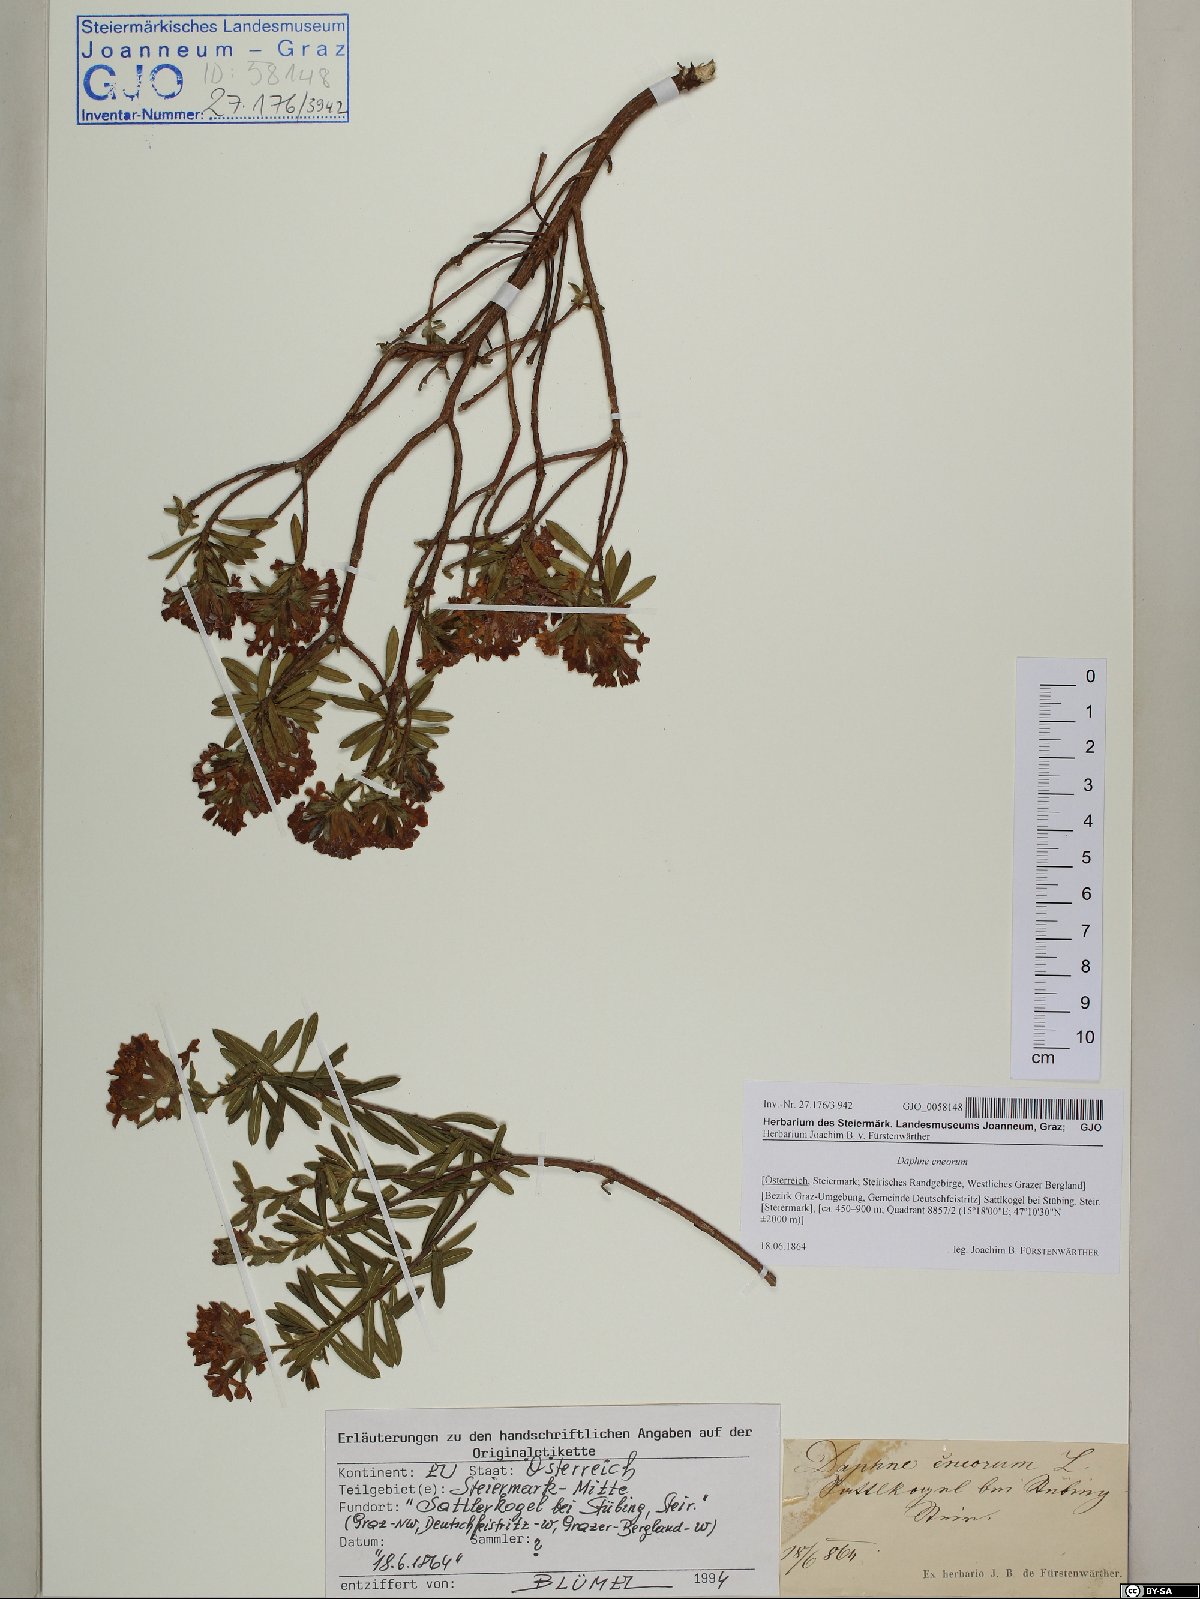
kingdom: Plantae
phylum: Tracheophyta
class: Magnoliopsida
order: Malvales
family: Thymelaeaceae
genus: Daphne
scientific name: Daphne cneorum
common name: Garland-flower
